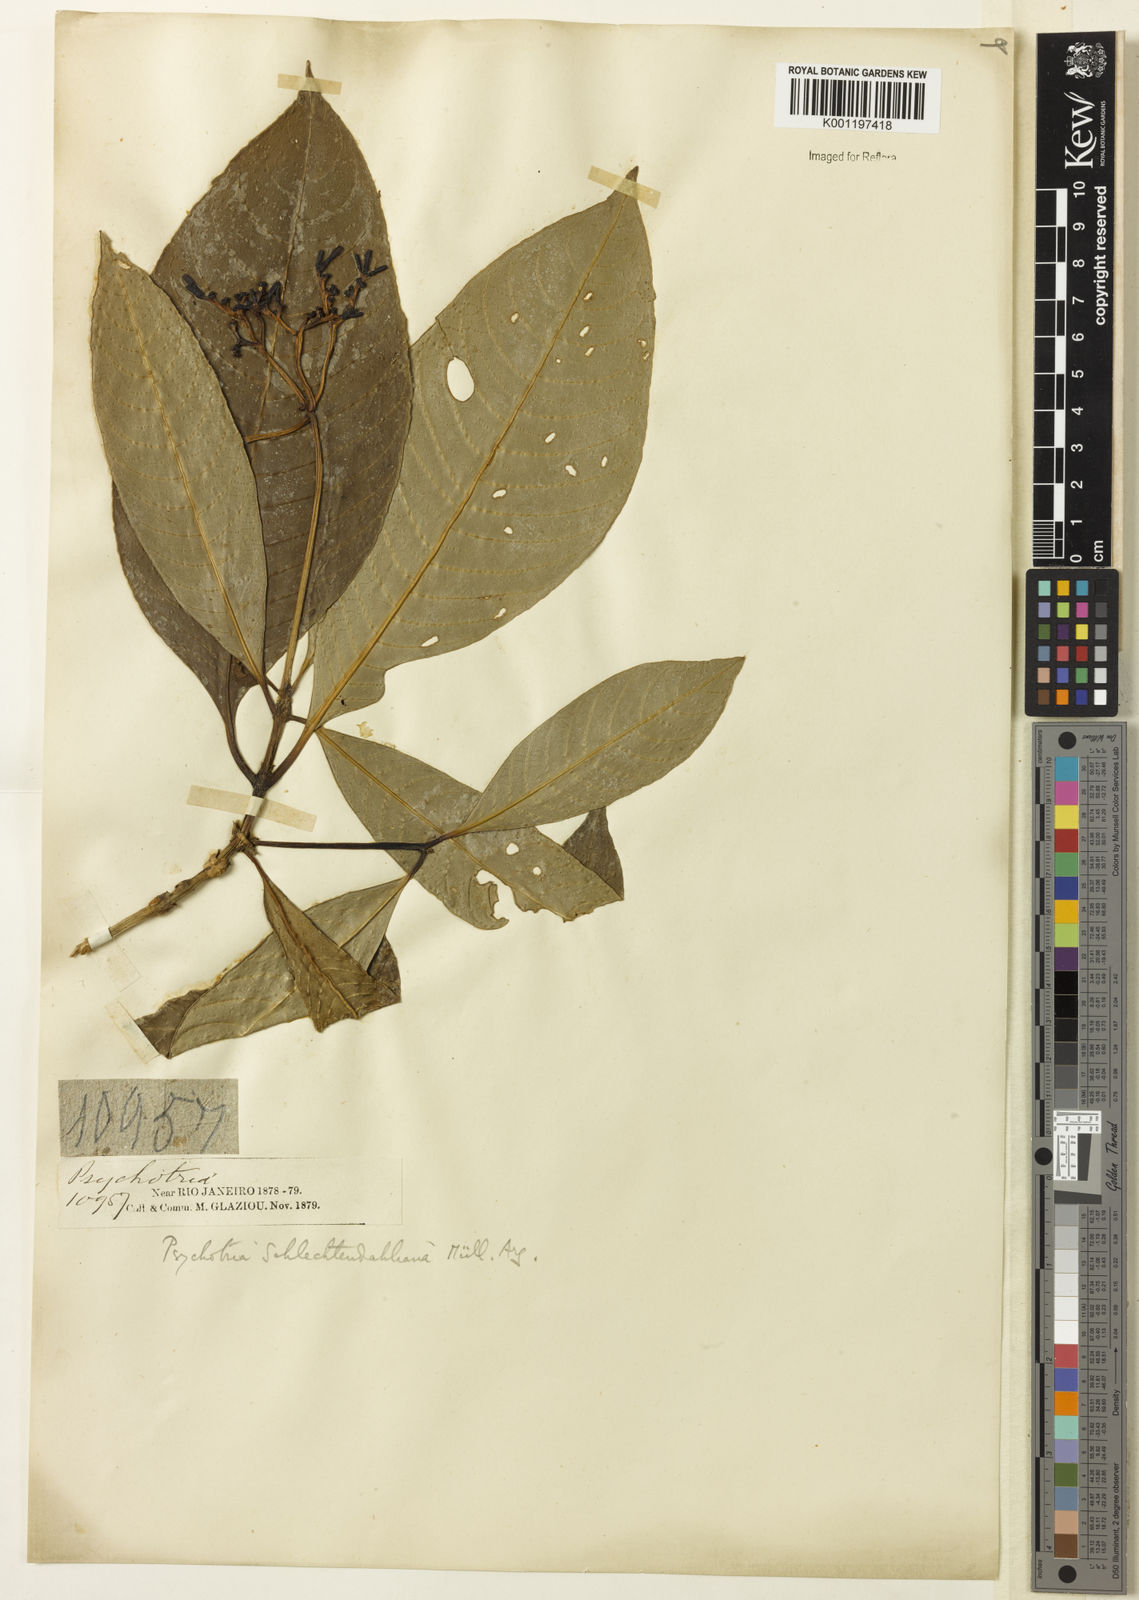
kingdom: Plantae
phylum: Tracheophyta
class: Magnoliopsida
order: Gentianales
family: Rubiaceae
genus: Psychotria
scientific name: Psychotria
